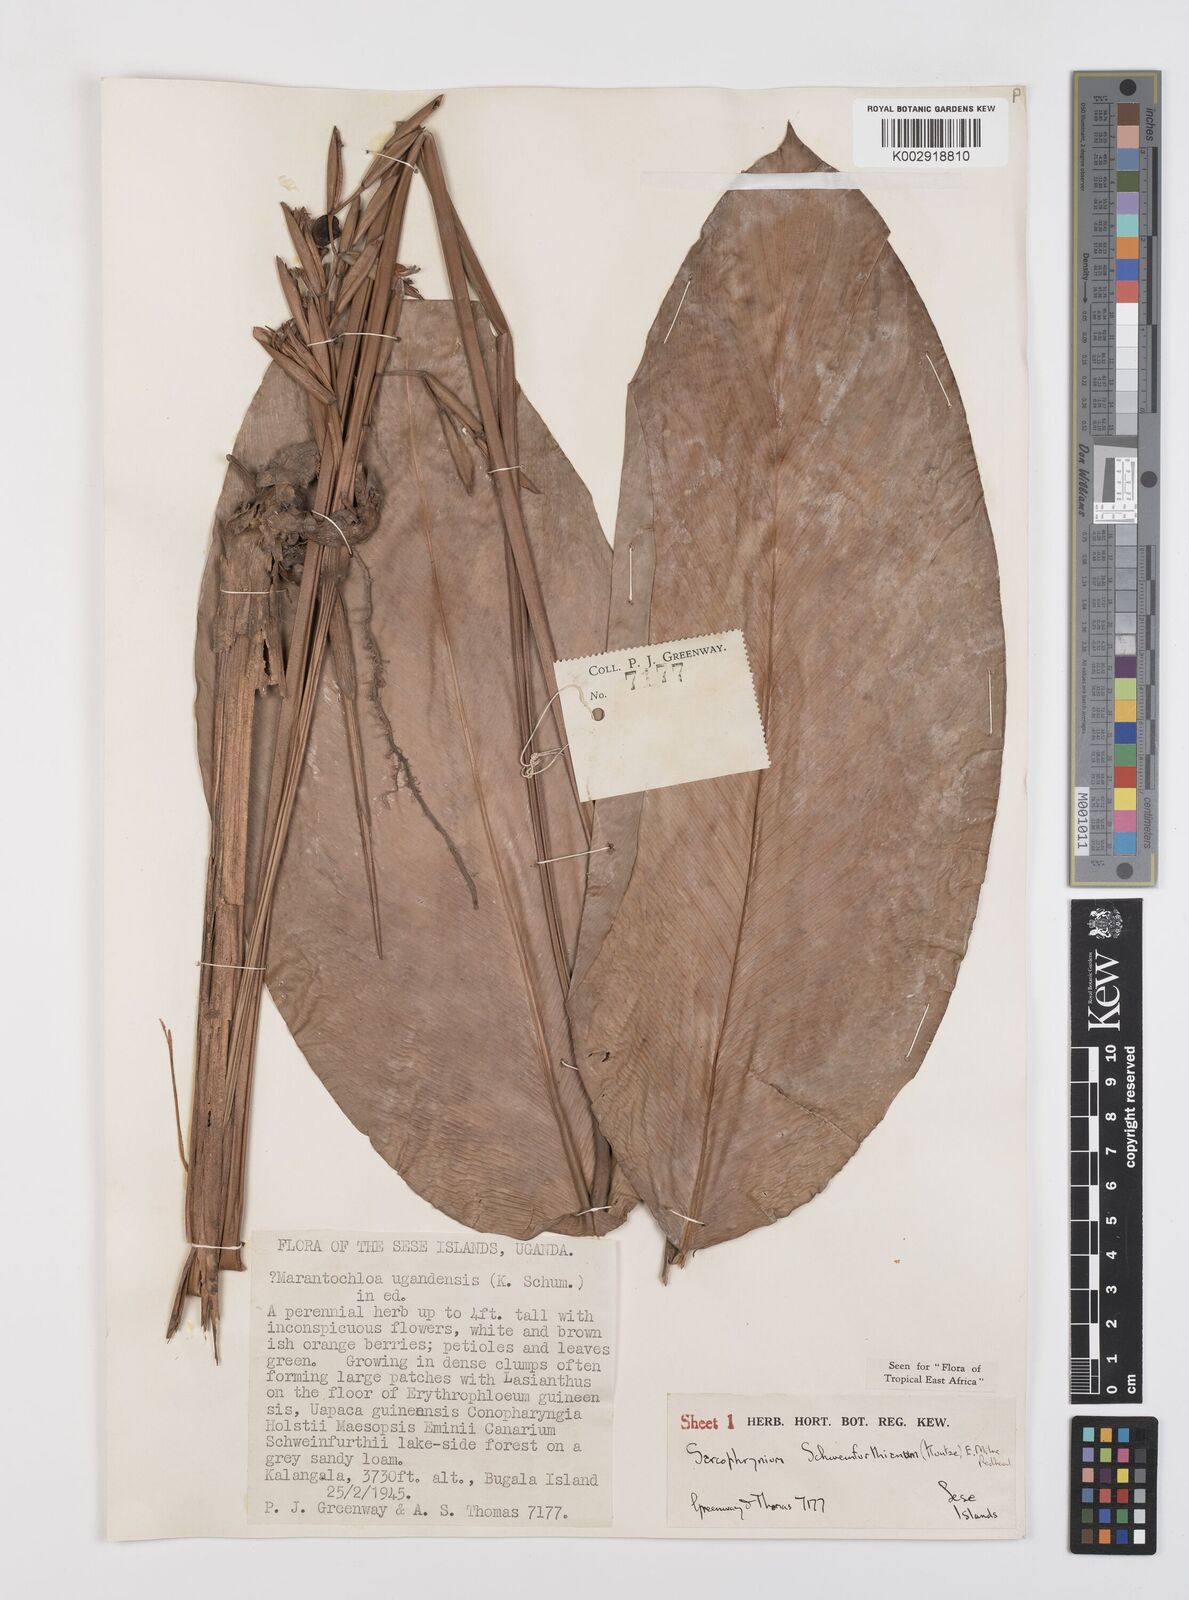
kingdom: Plantae
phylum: Tracheophyta
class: Liliopsida
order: Zingiberales
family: Marantaceae
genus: Sarcophrynium
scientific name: Sarcophrynium schweinfurthianum
